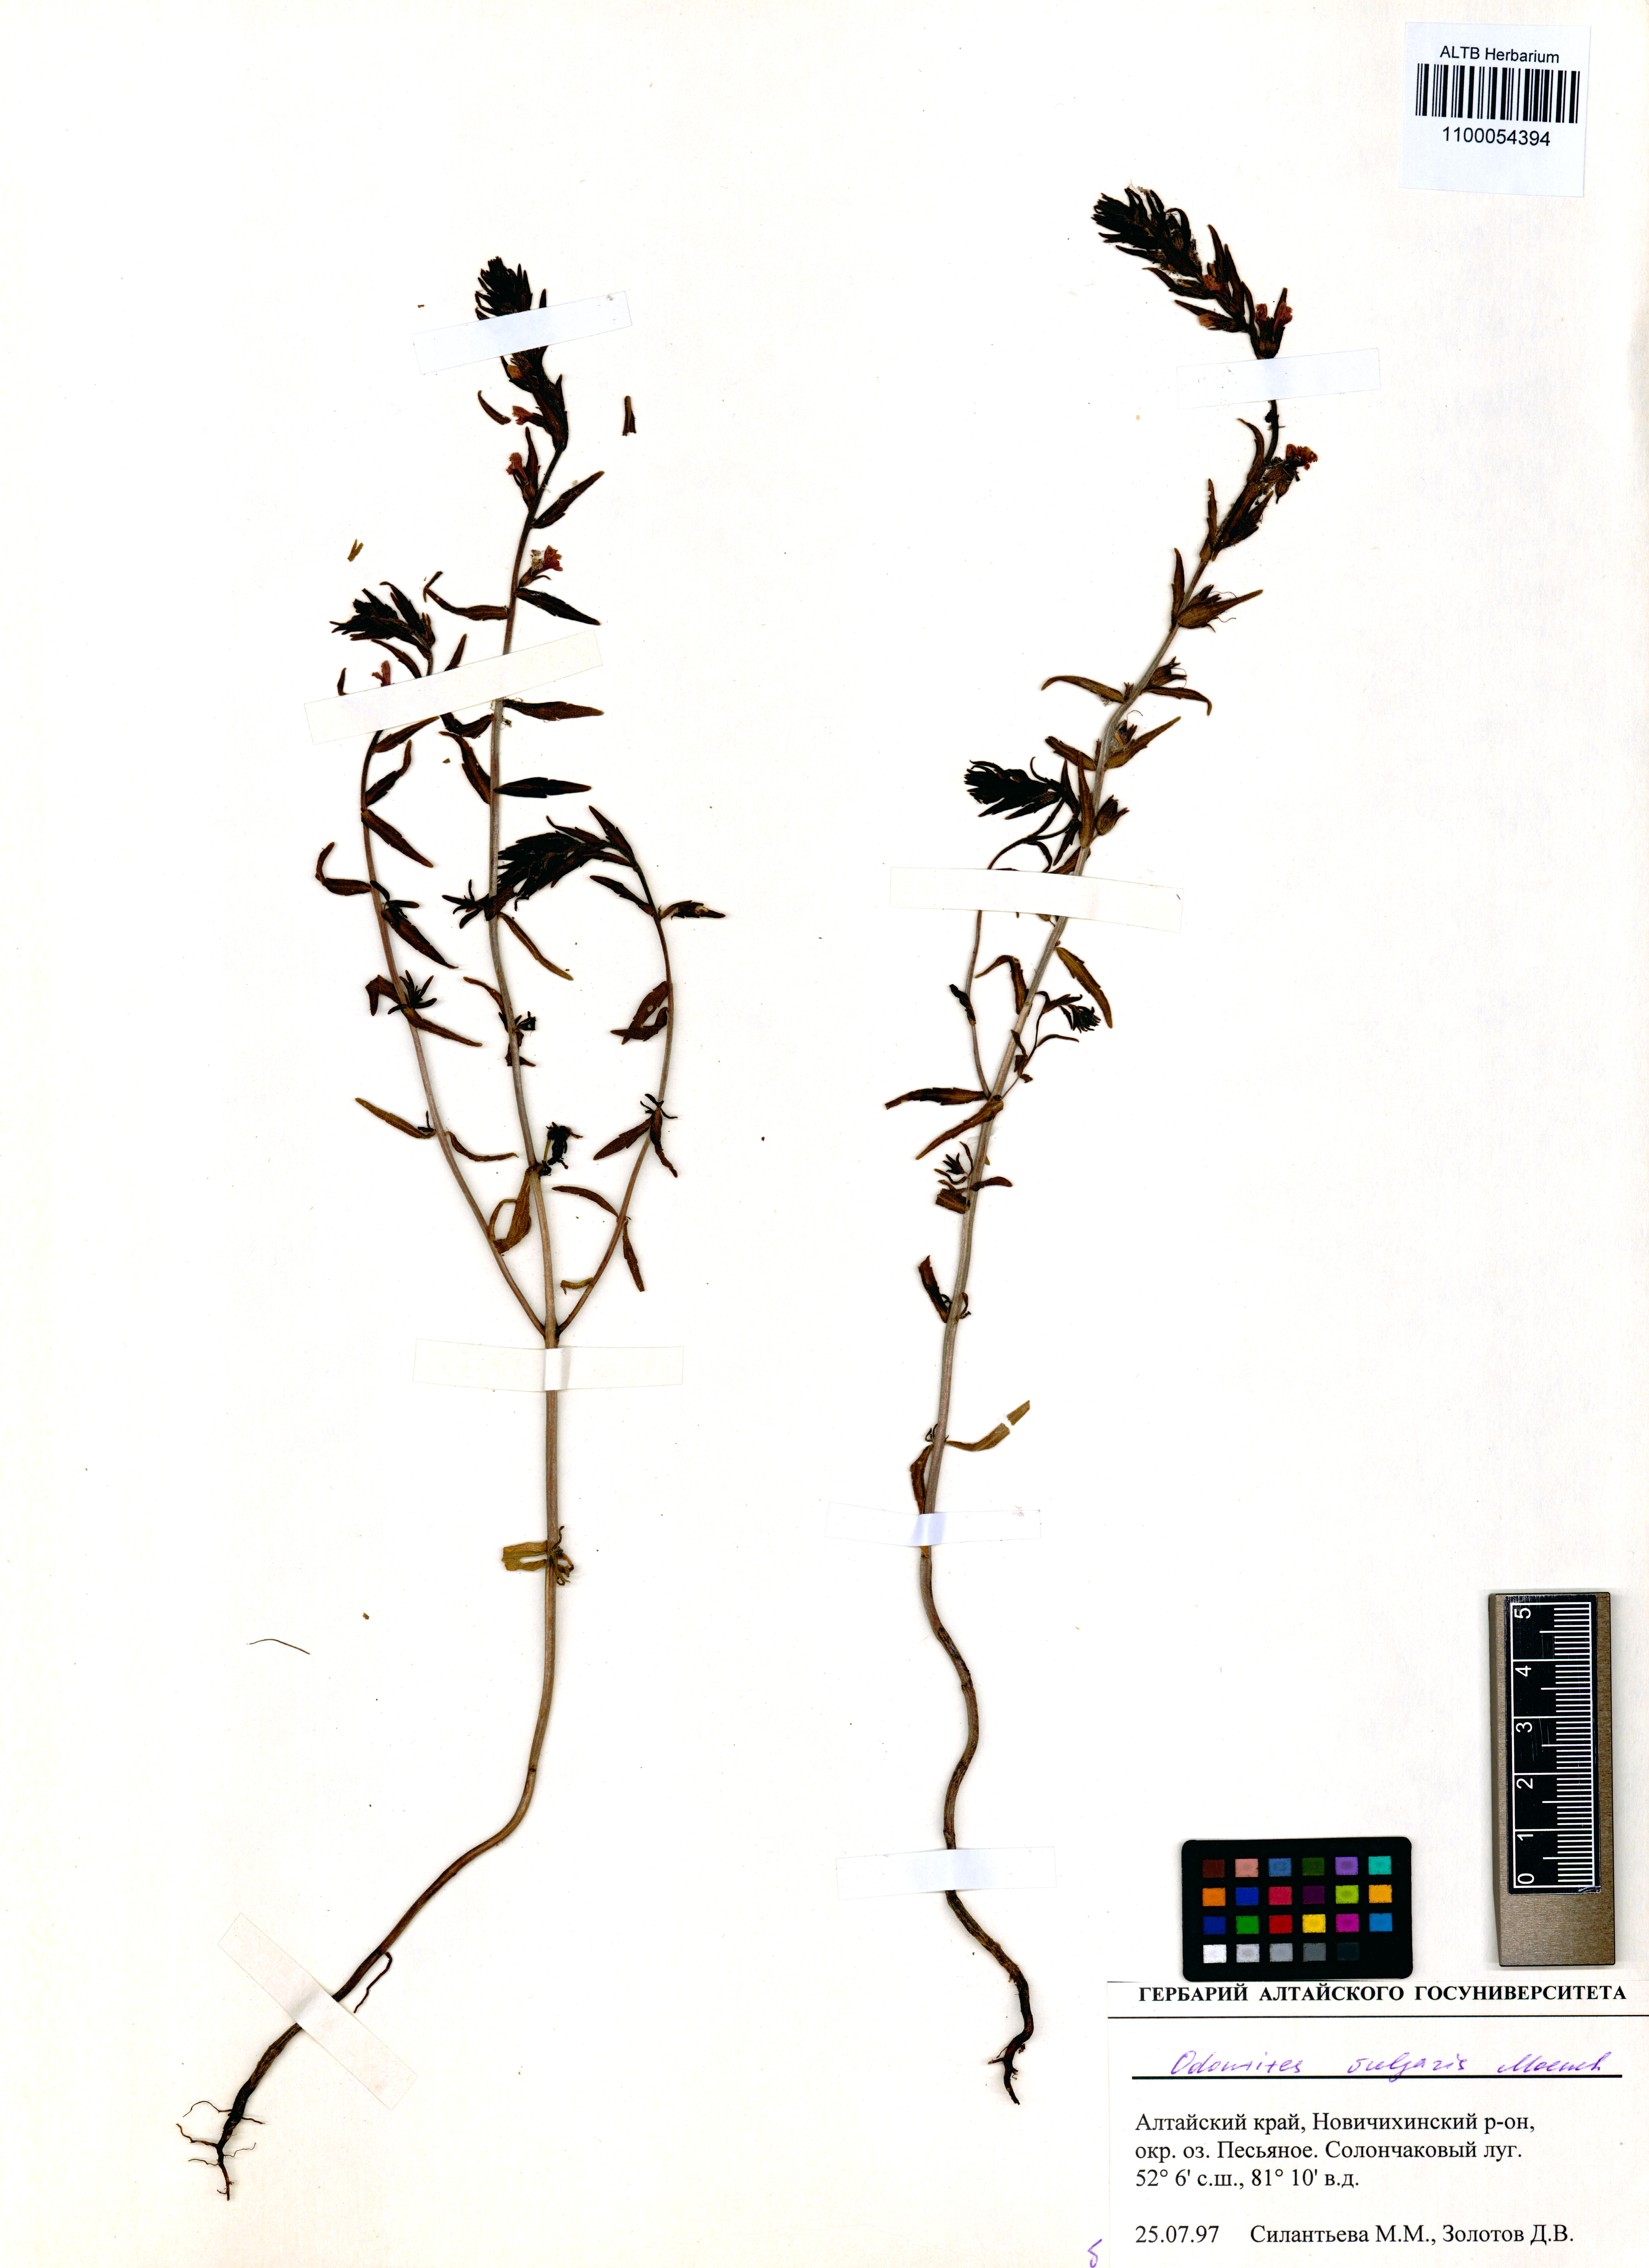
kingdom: Plantae
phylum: Tracheophyta
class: Magnoliopsida
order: Lamiales
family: Orobanchaceae
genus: Odontites
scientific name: Odontites vulgaris
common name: Broomrape
